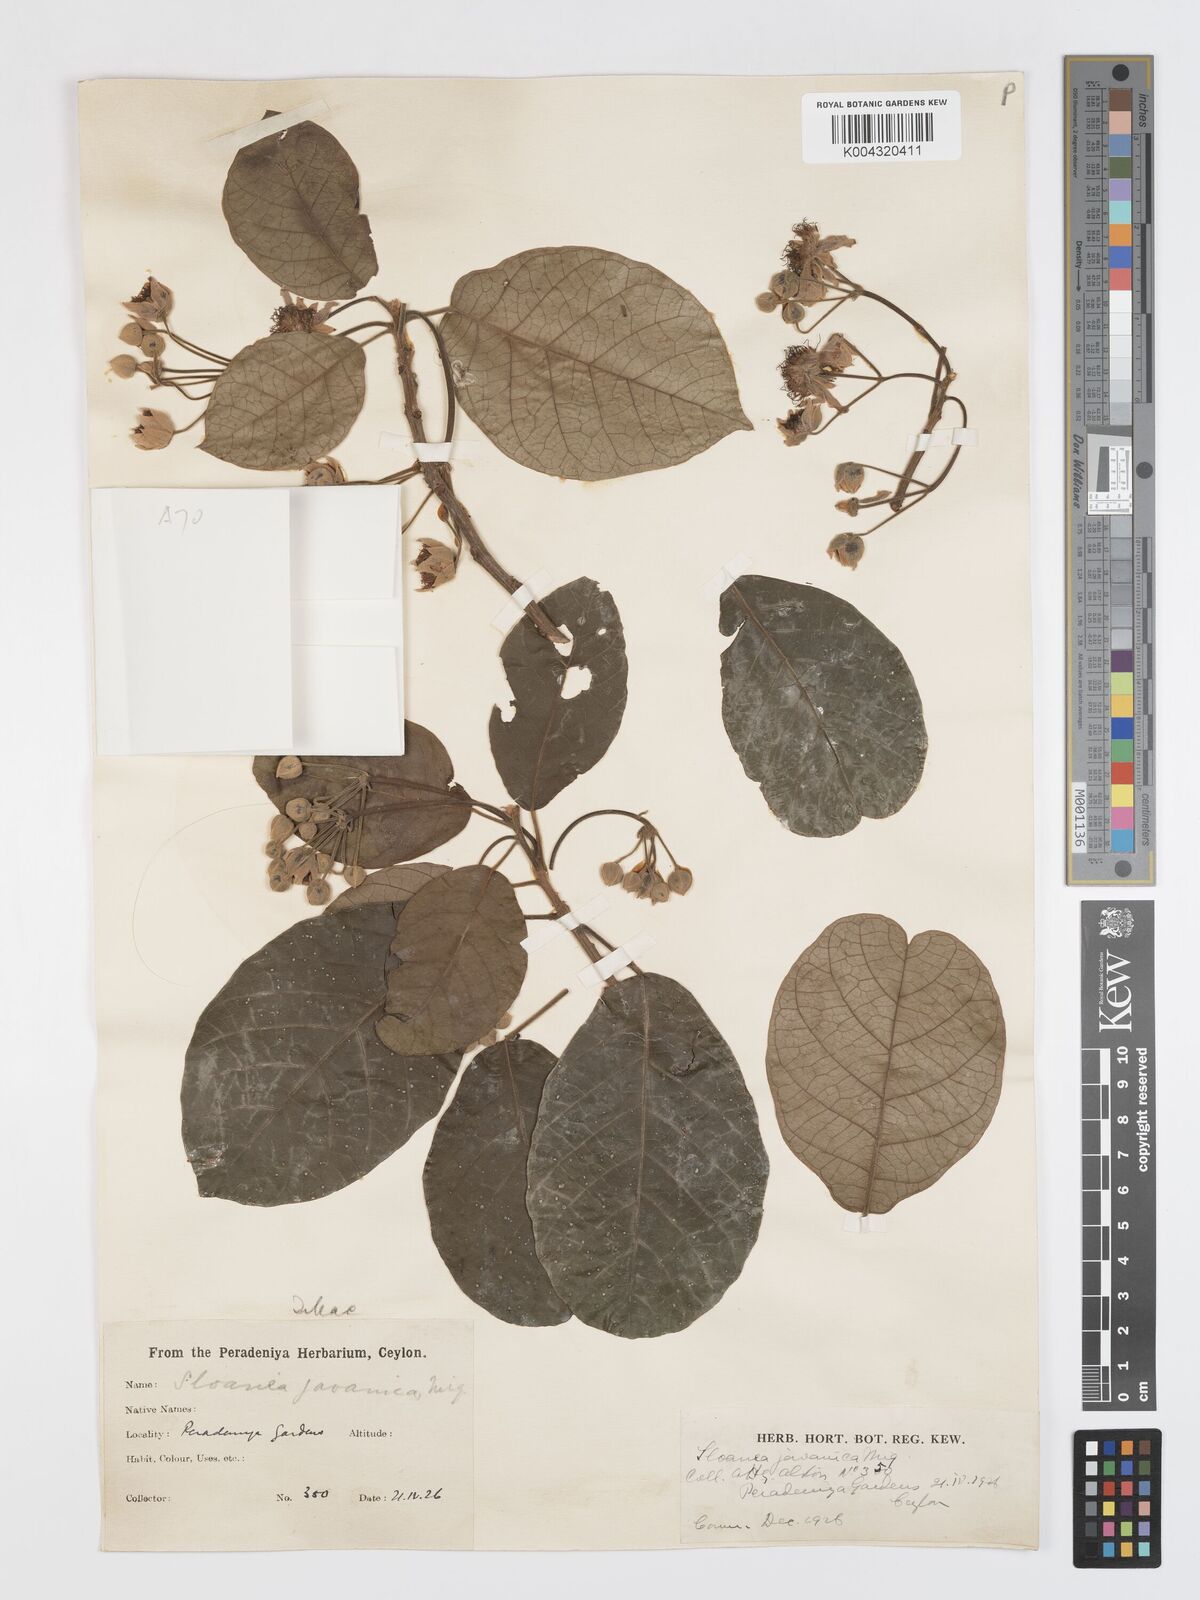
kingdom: Plantae
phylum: Tracheophyta
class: Magnoliopsida
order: Oxalidales
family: Elaeocarpaceae
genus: Sloanea
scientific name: Sloanea javanica
